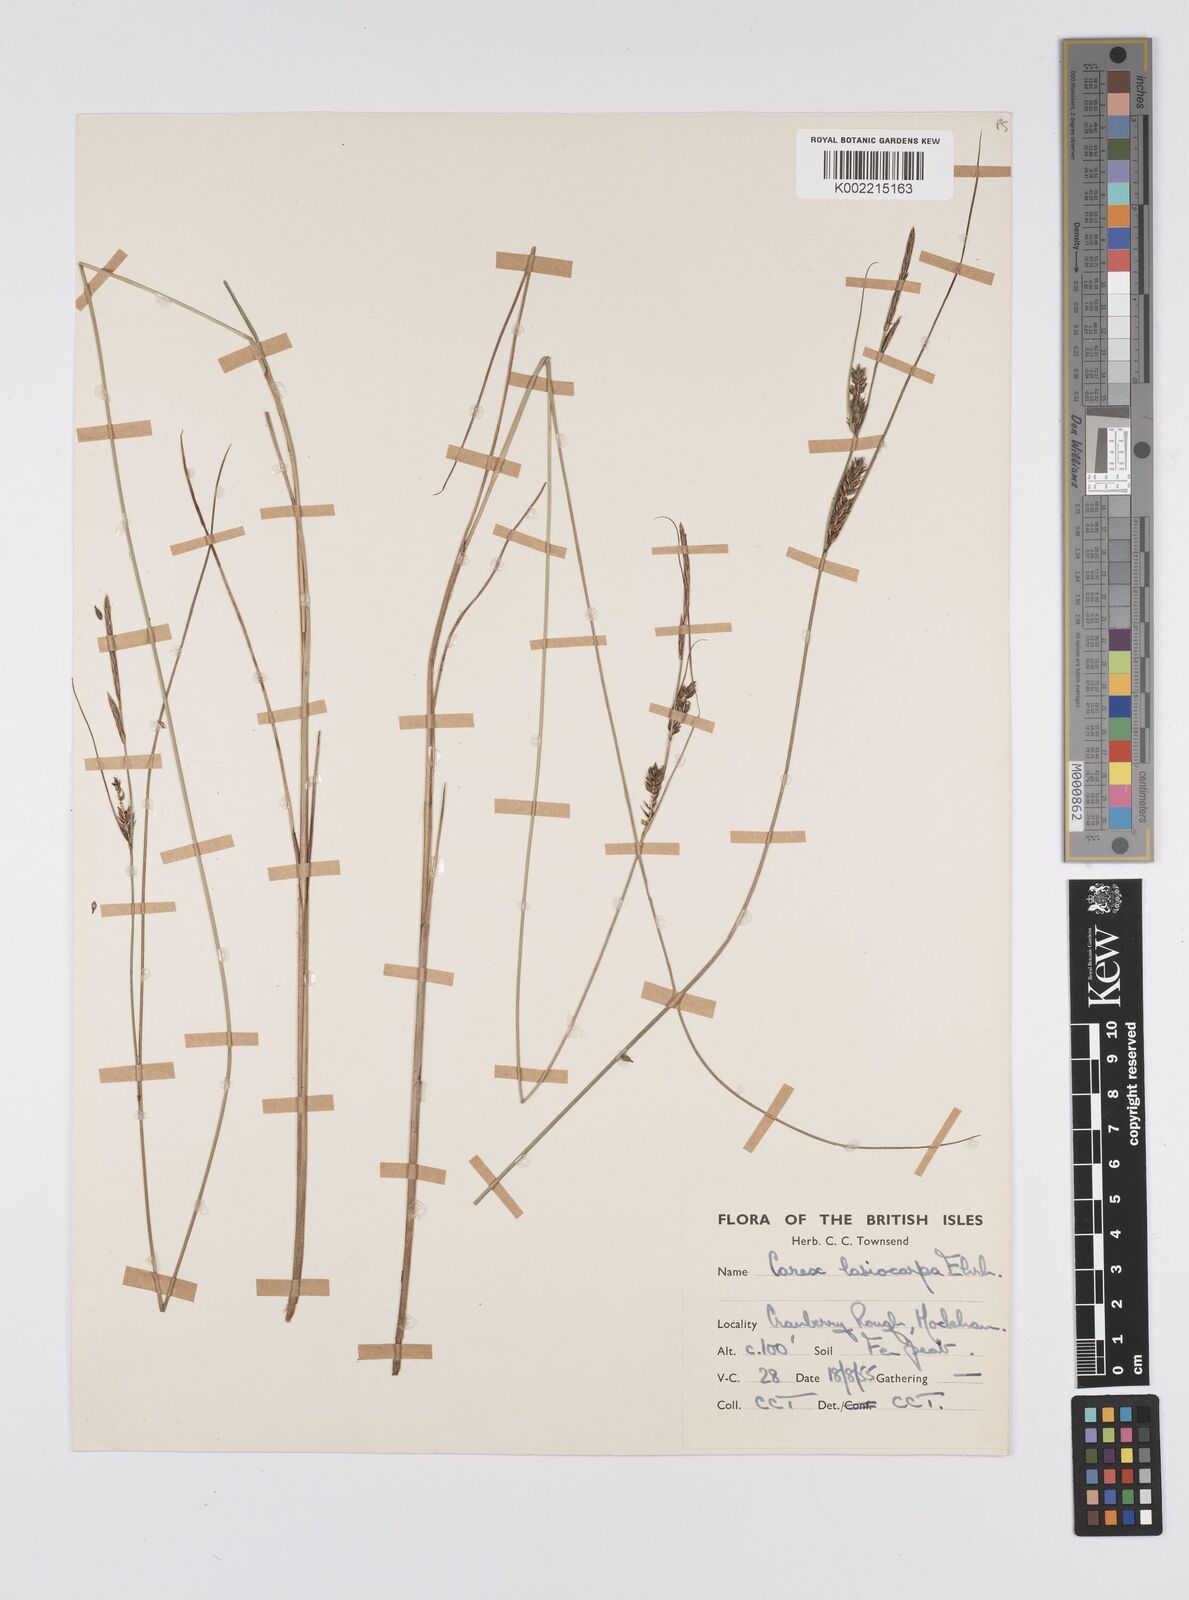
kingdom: Plantae
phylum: Tracheophyta
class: Liliopsida
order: Poales
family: Cyperaceae
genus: Carex
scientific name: Carex lasiocarpa
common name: Slender sedge
